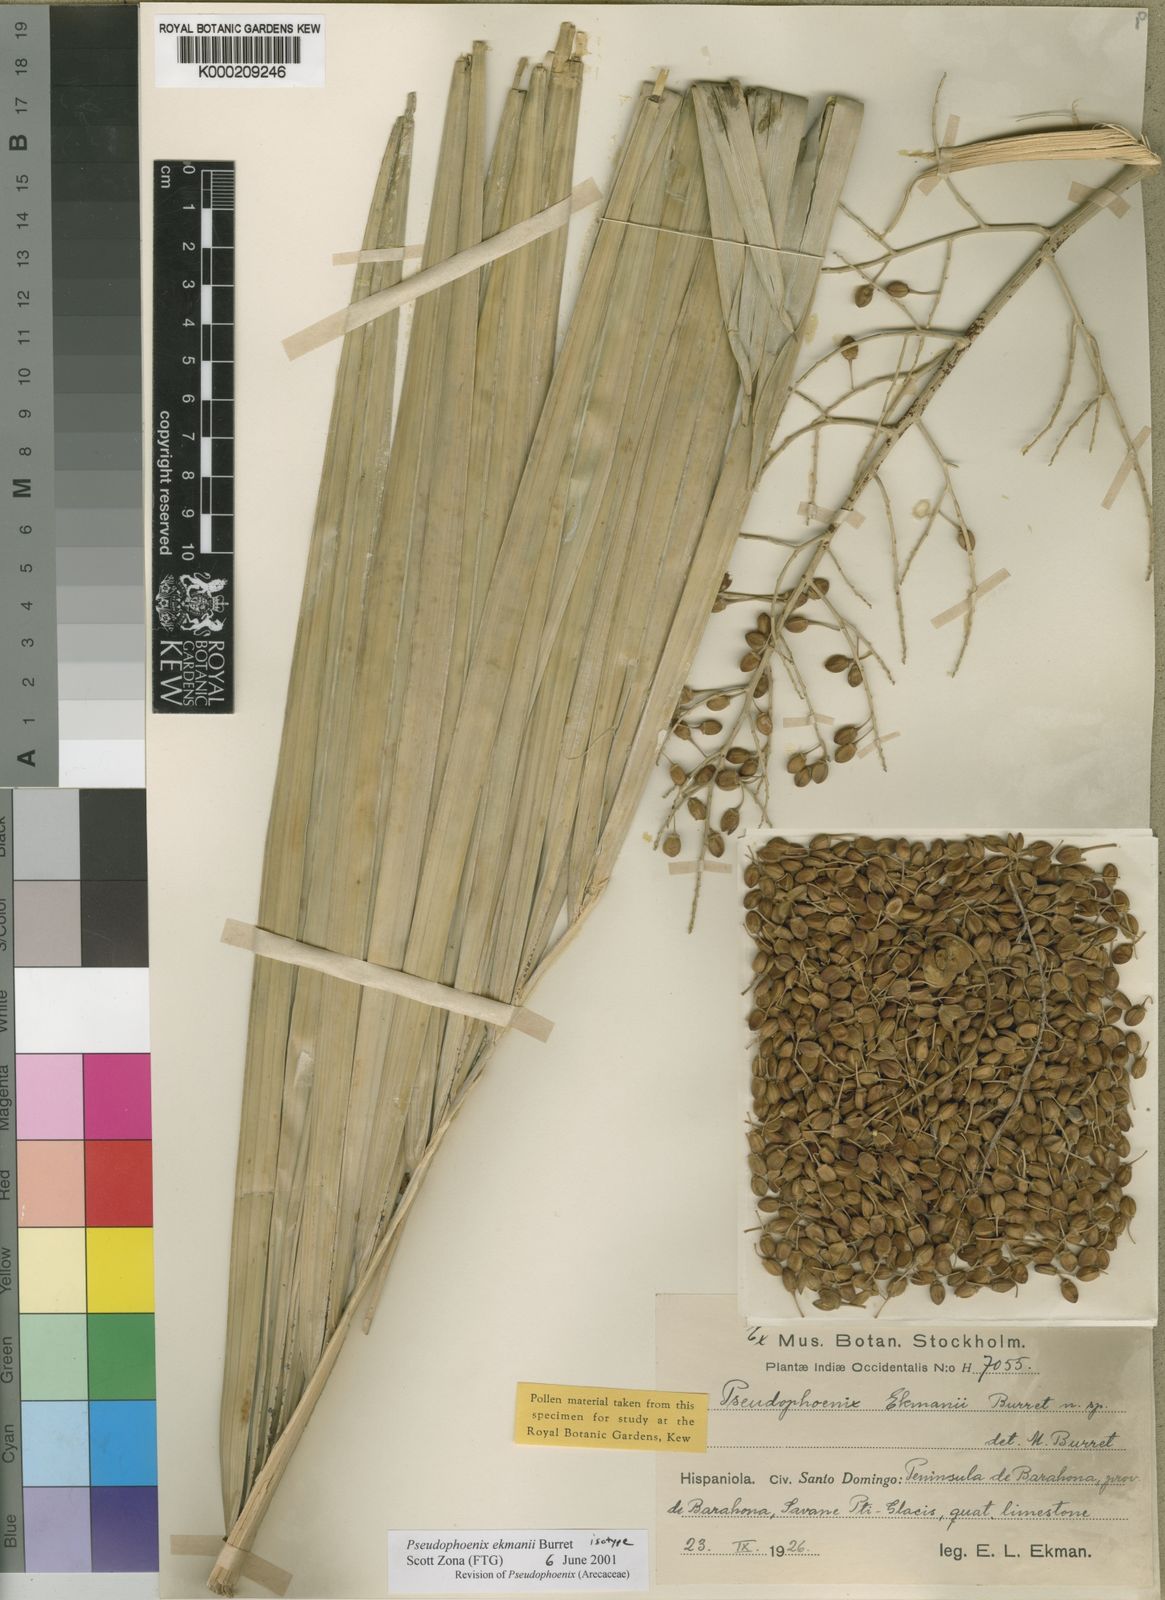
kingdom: Plantae
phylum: Tracheophyta
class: Liliopsida
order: Arecales
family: Arecaceae
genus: Pseudophoenix
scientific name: Pseudophoenix ekmanii
